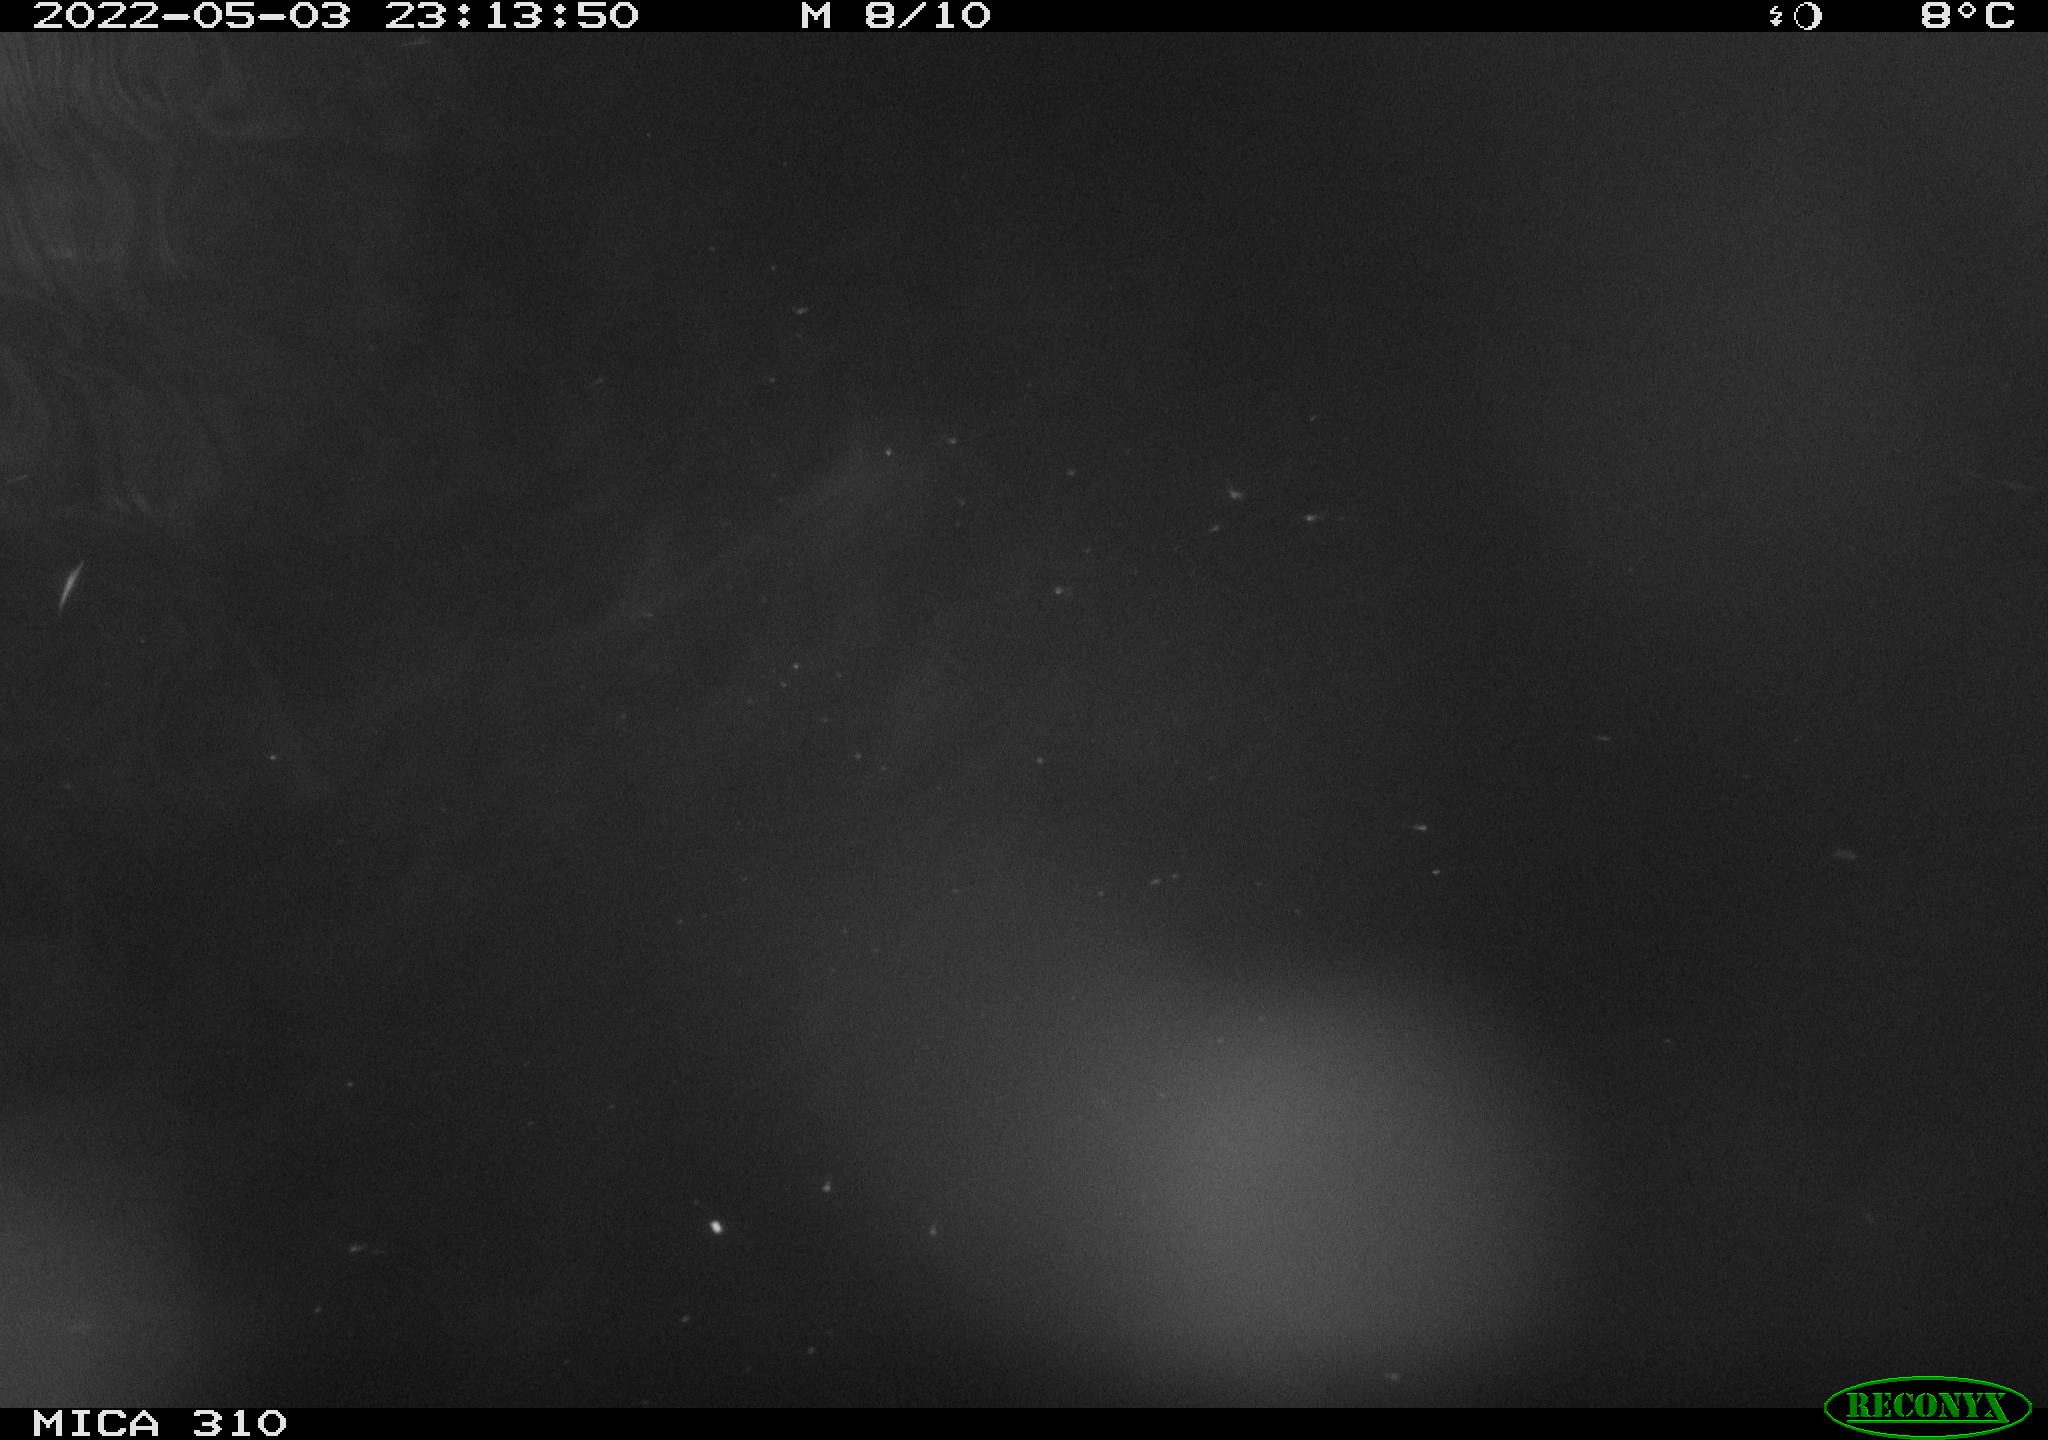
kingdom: Animalia
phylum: Chordata
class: Mammalia
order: Rodentia
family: Cricetidae
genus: Ondatra
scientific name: Ondatra zibethicus
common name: Muskrat
